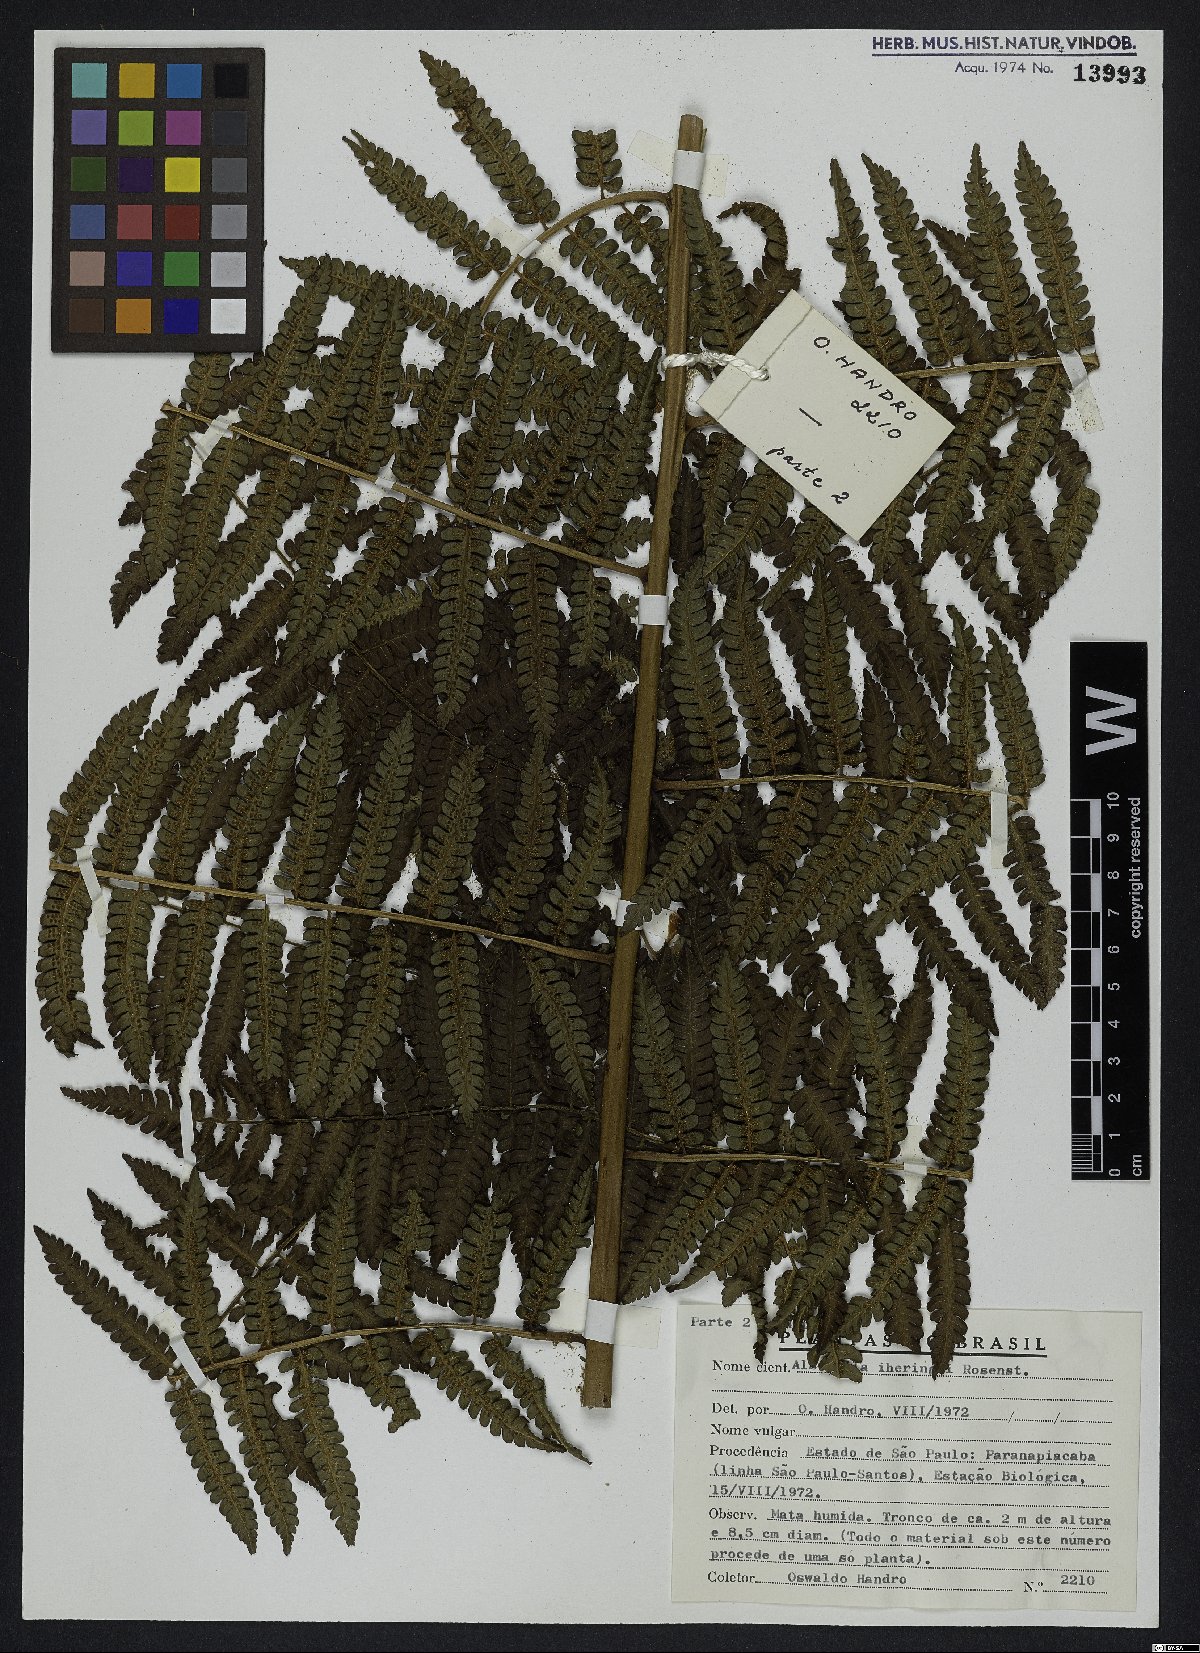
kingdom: Plantae
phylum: Tracheophyta
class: Polypodiopsida
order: Cyatheales
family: Cyatheaceae
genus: Cyathea
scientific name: Cyathea iheringii
